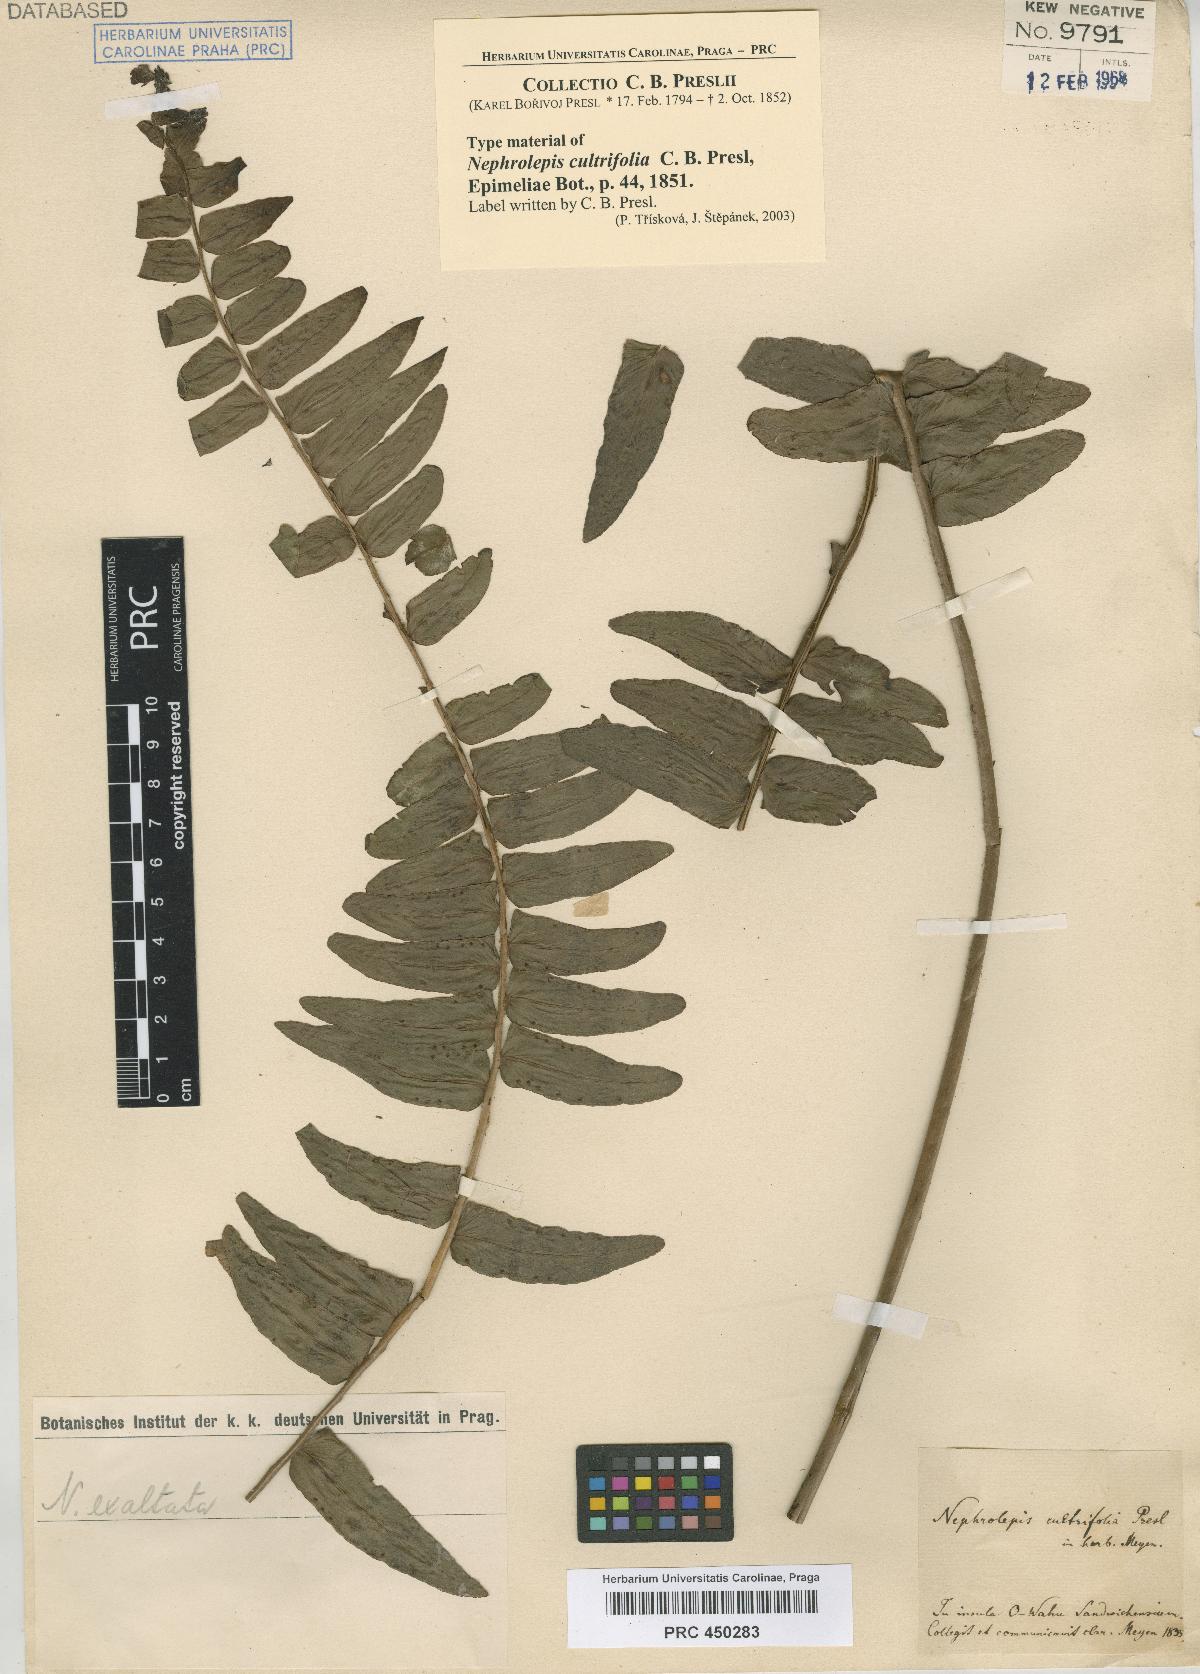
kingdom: Plantae
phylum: Tracheophyta
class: Polypodiopsida
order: Polypodiales
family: Nephrolepidaceae
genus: Nephrolepis
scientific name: Nephrolepis exaltata
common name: Sword fern
